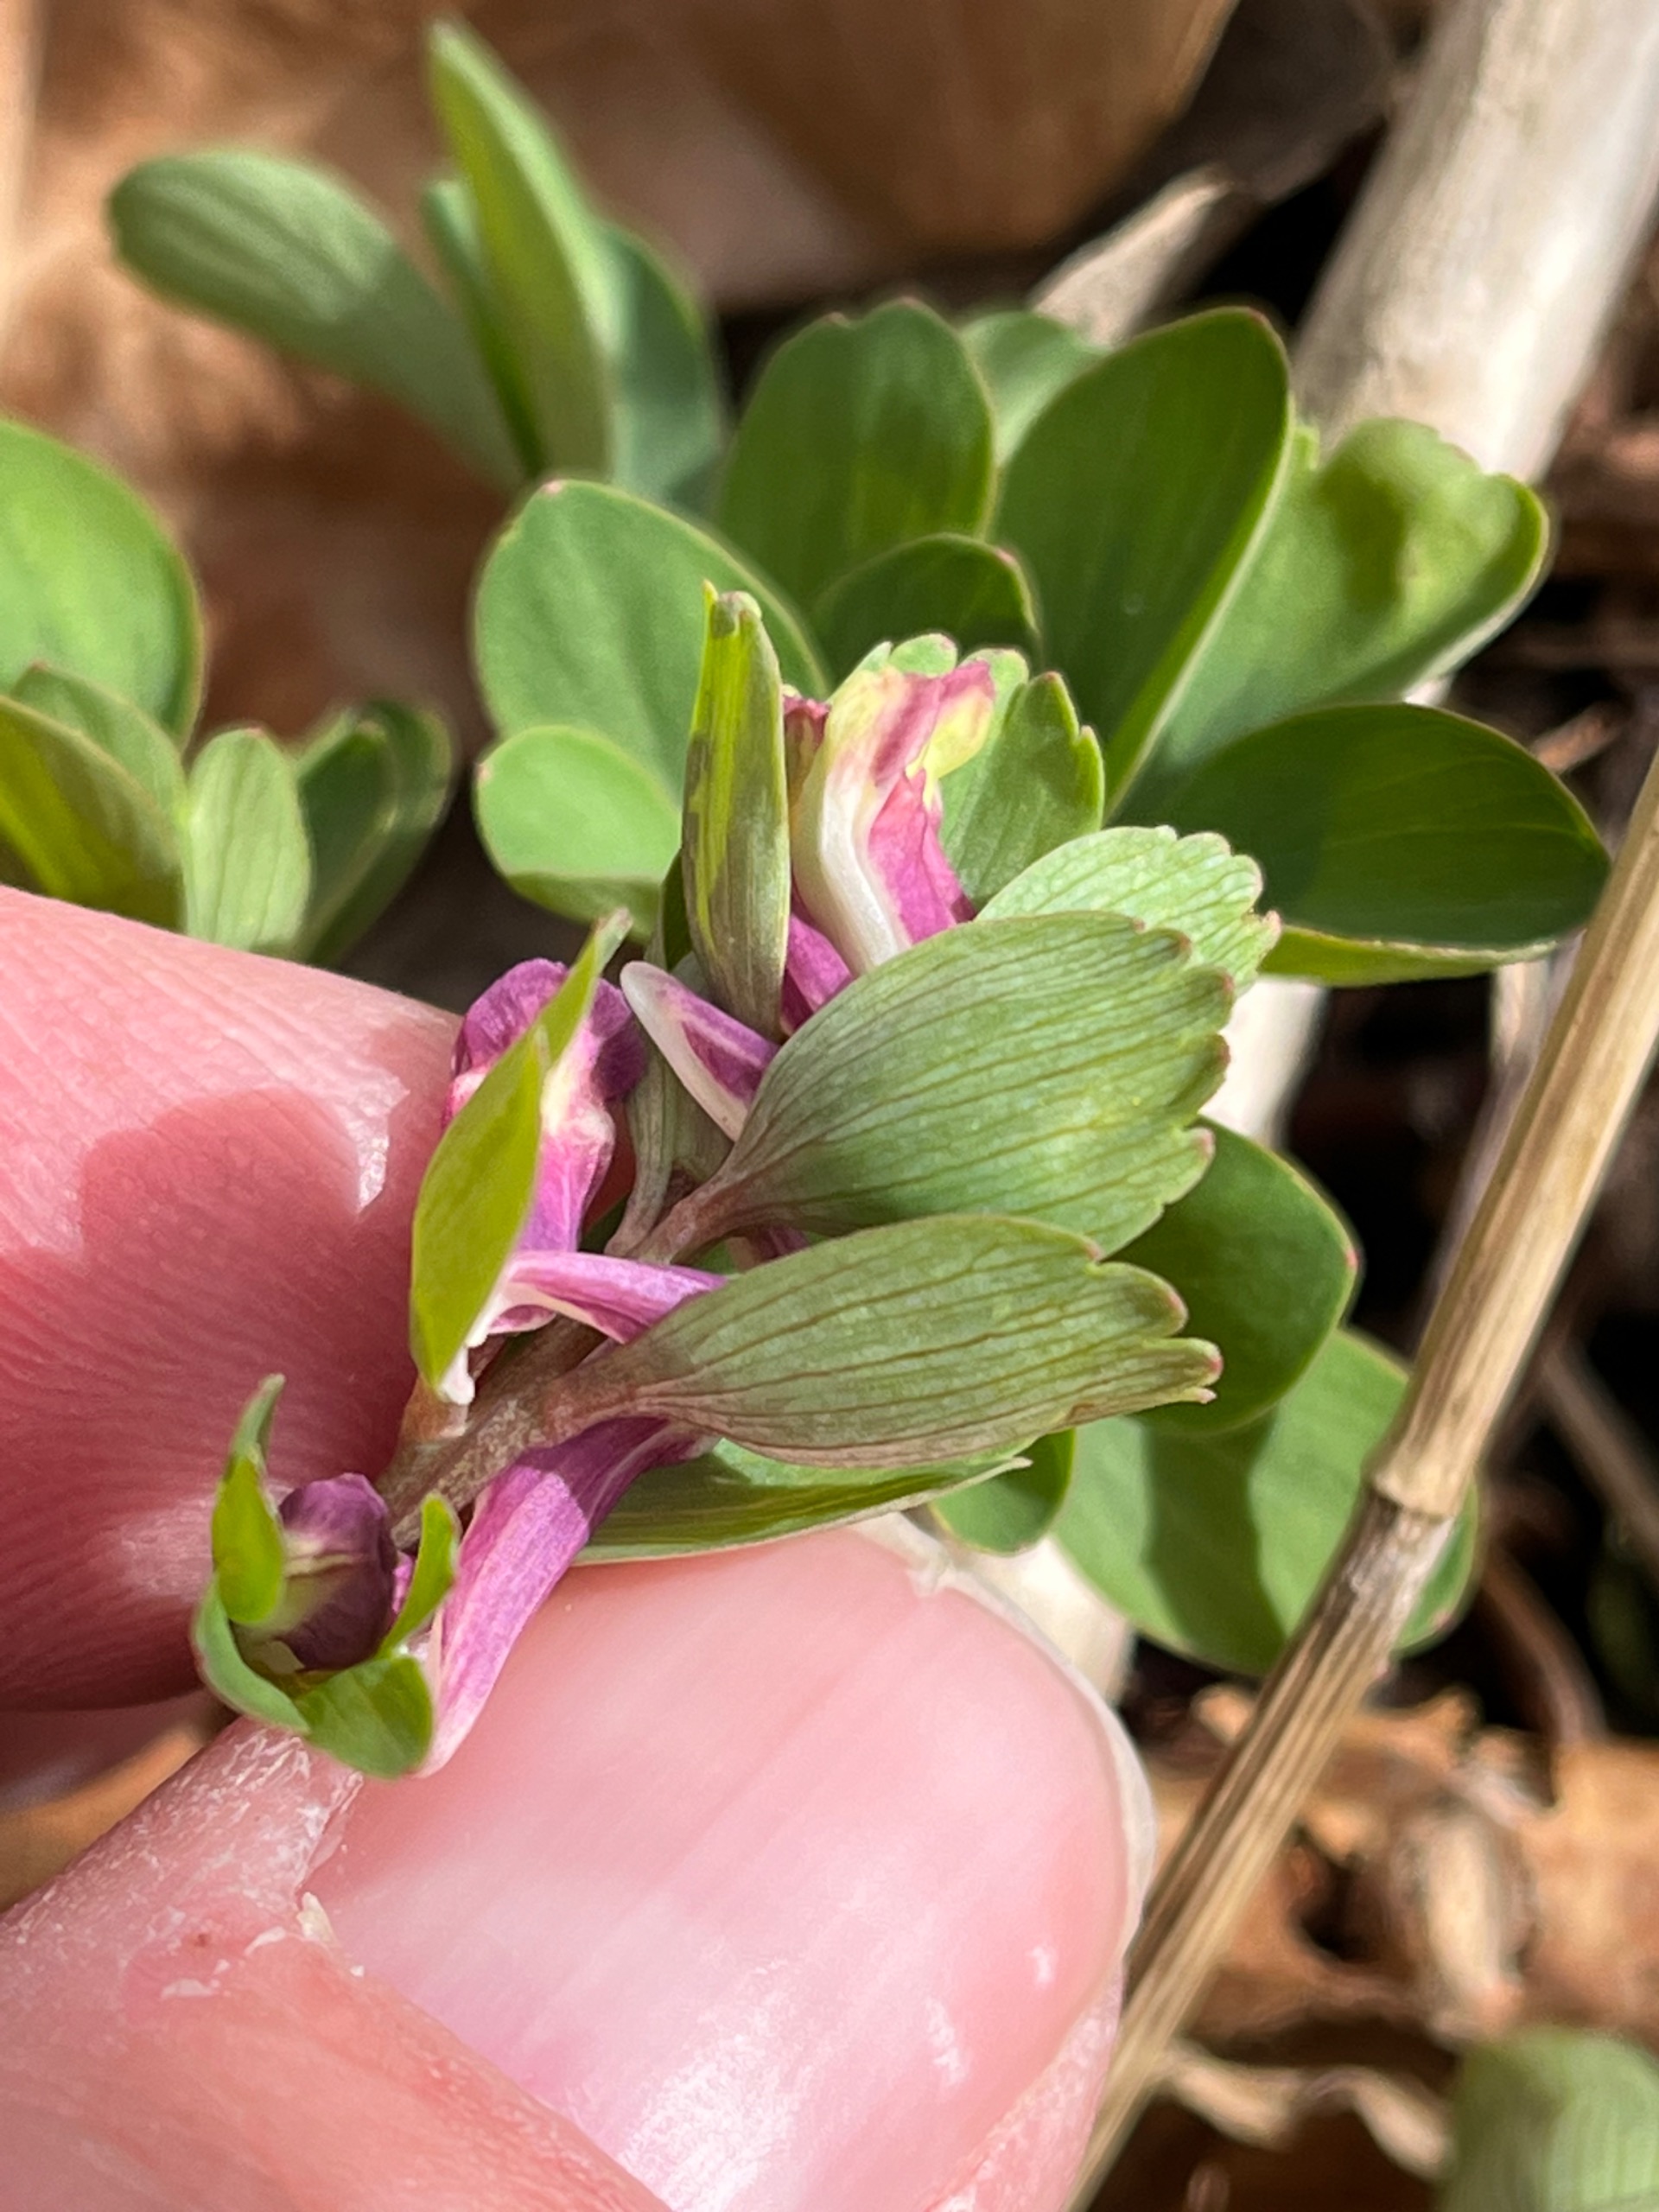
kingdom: Plantae
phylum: Tracheophyta
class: Magnoliopsida
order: Ranunculales
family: Papaveraceae
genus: Corydalis
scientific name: Corydalis pumila
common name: Finger-lærkespore
